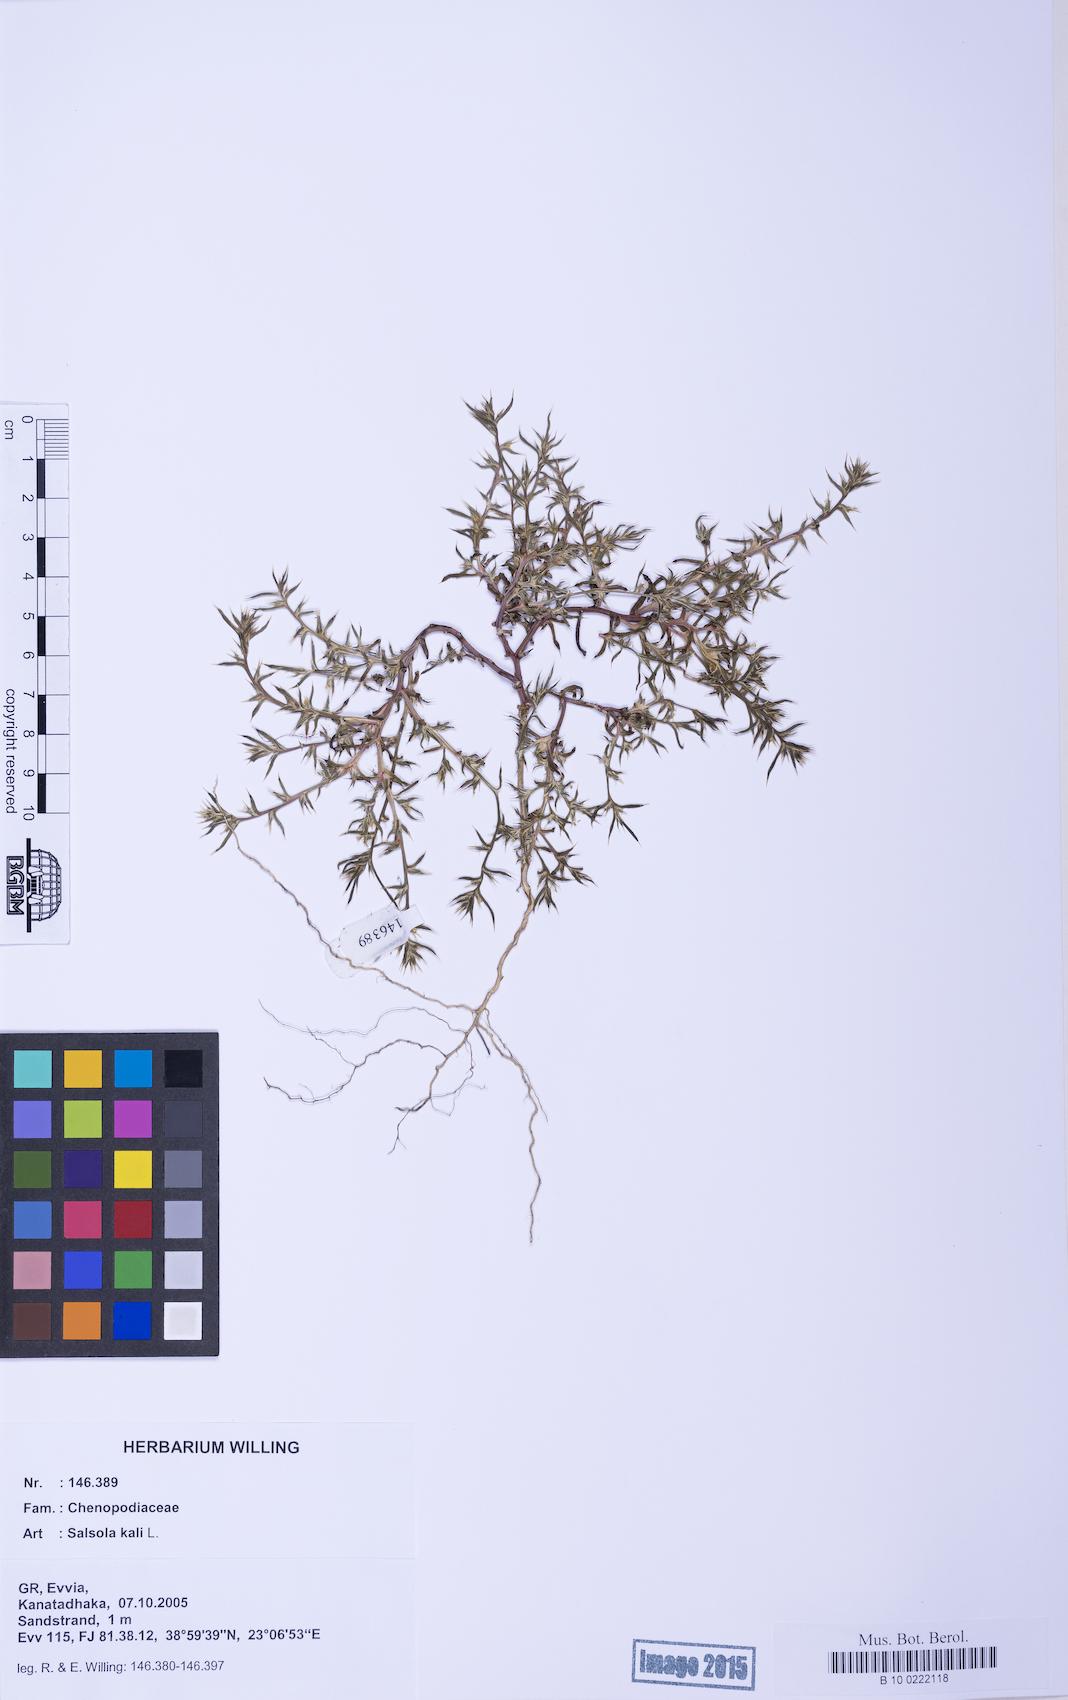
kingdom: Plantae
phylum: Tracheophyta
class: Magnoliopsida
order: Caryophyllales
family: Amaranthaceae
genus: Salsola
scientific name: Salsola kali
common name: Saltwort
